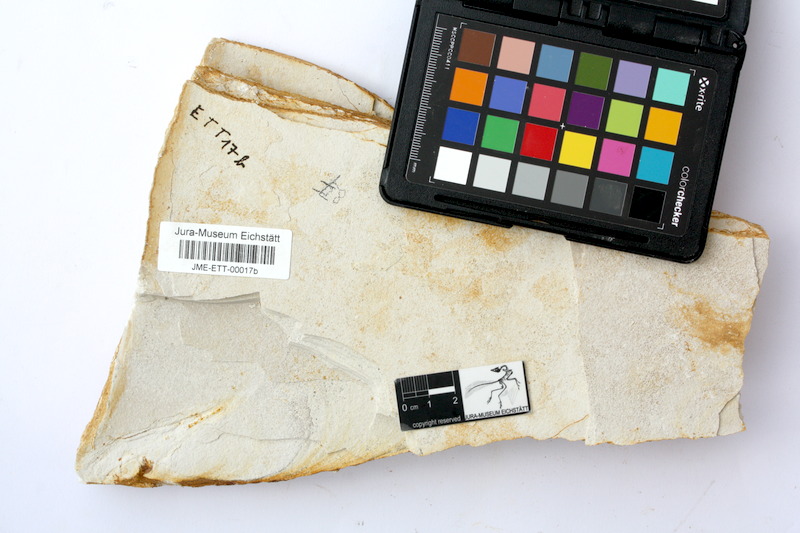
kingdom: Animalia
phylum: Chordata
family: Aspidorhynchidae
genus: Belonostomus
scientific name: Belonostomus kochii
